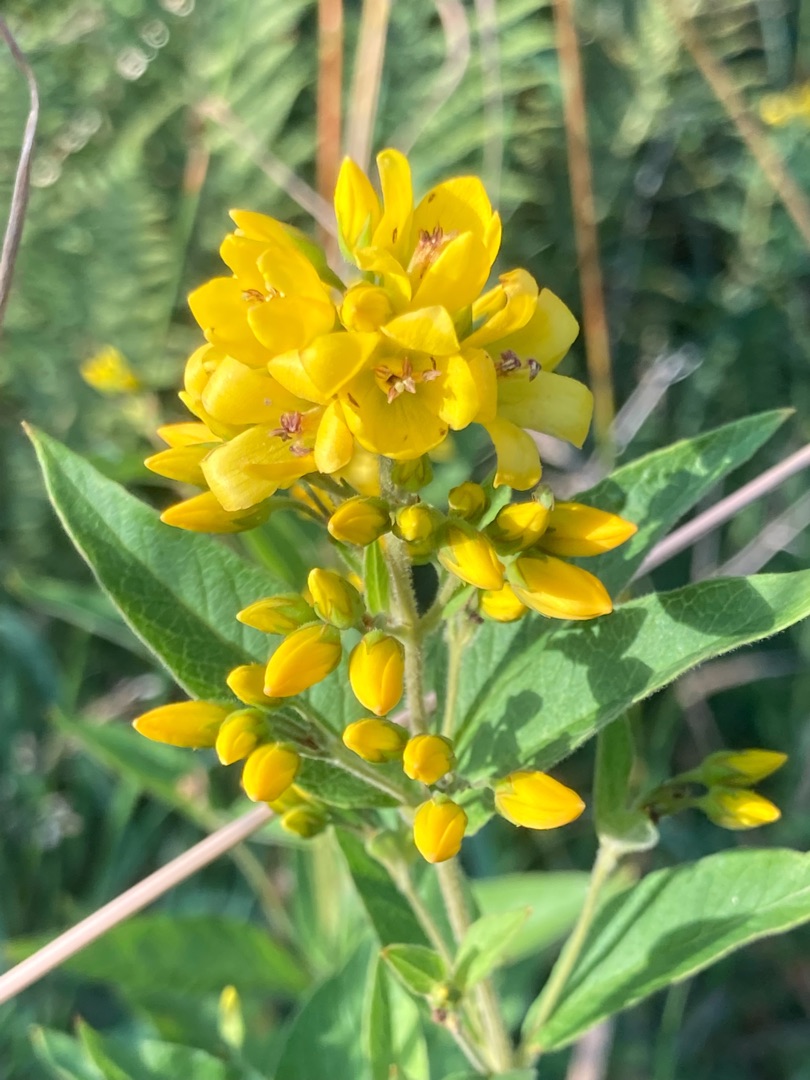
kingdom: Plantae
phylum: Tracheophyta
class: Magnoliopsida
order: Ericales
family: Primulaceae
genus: Lysimachia
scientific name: Lysimachia vulgaris
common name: Almindelig fredløs
